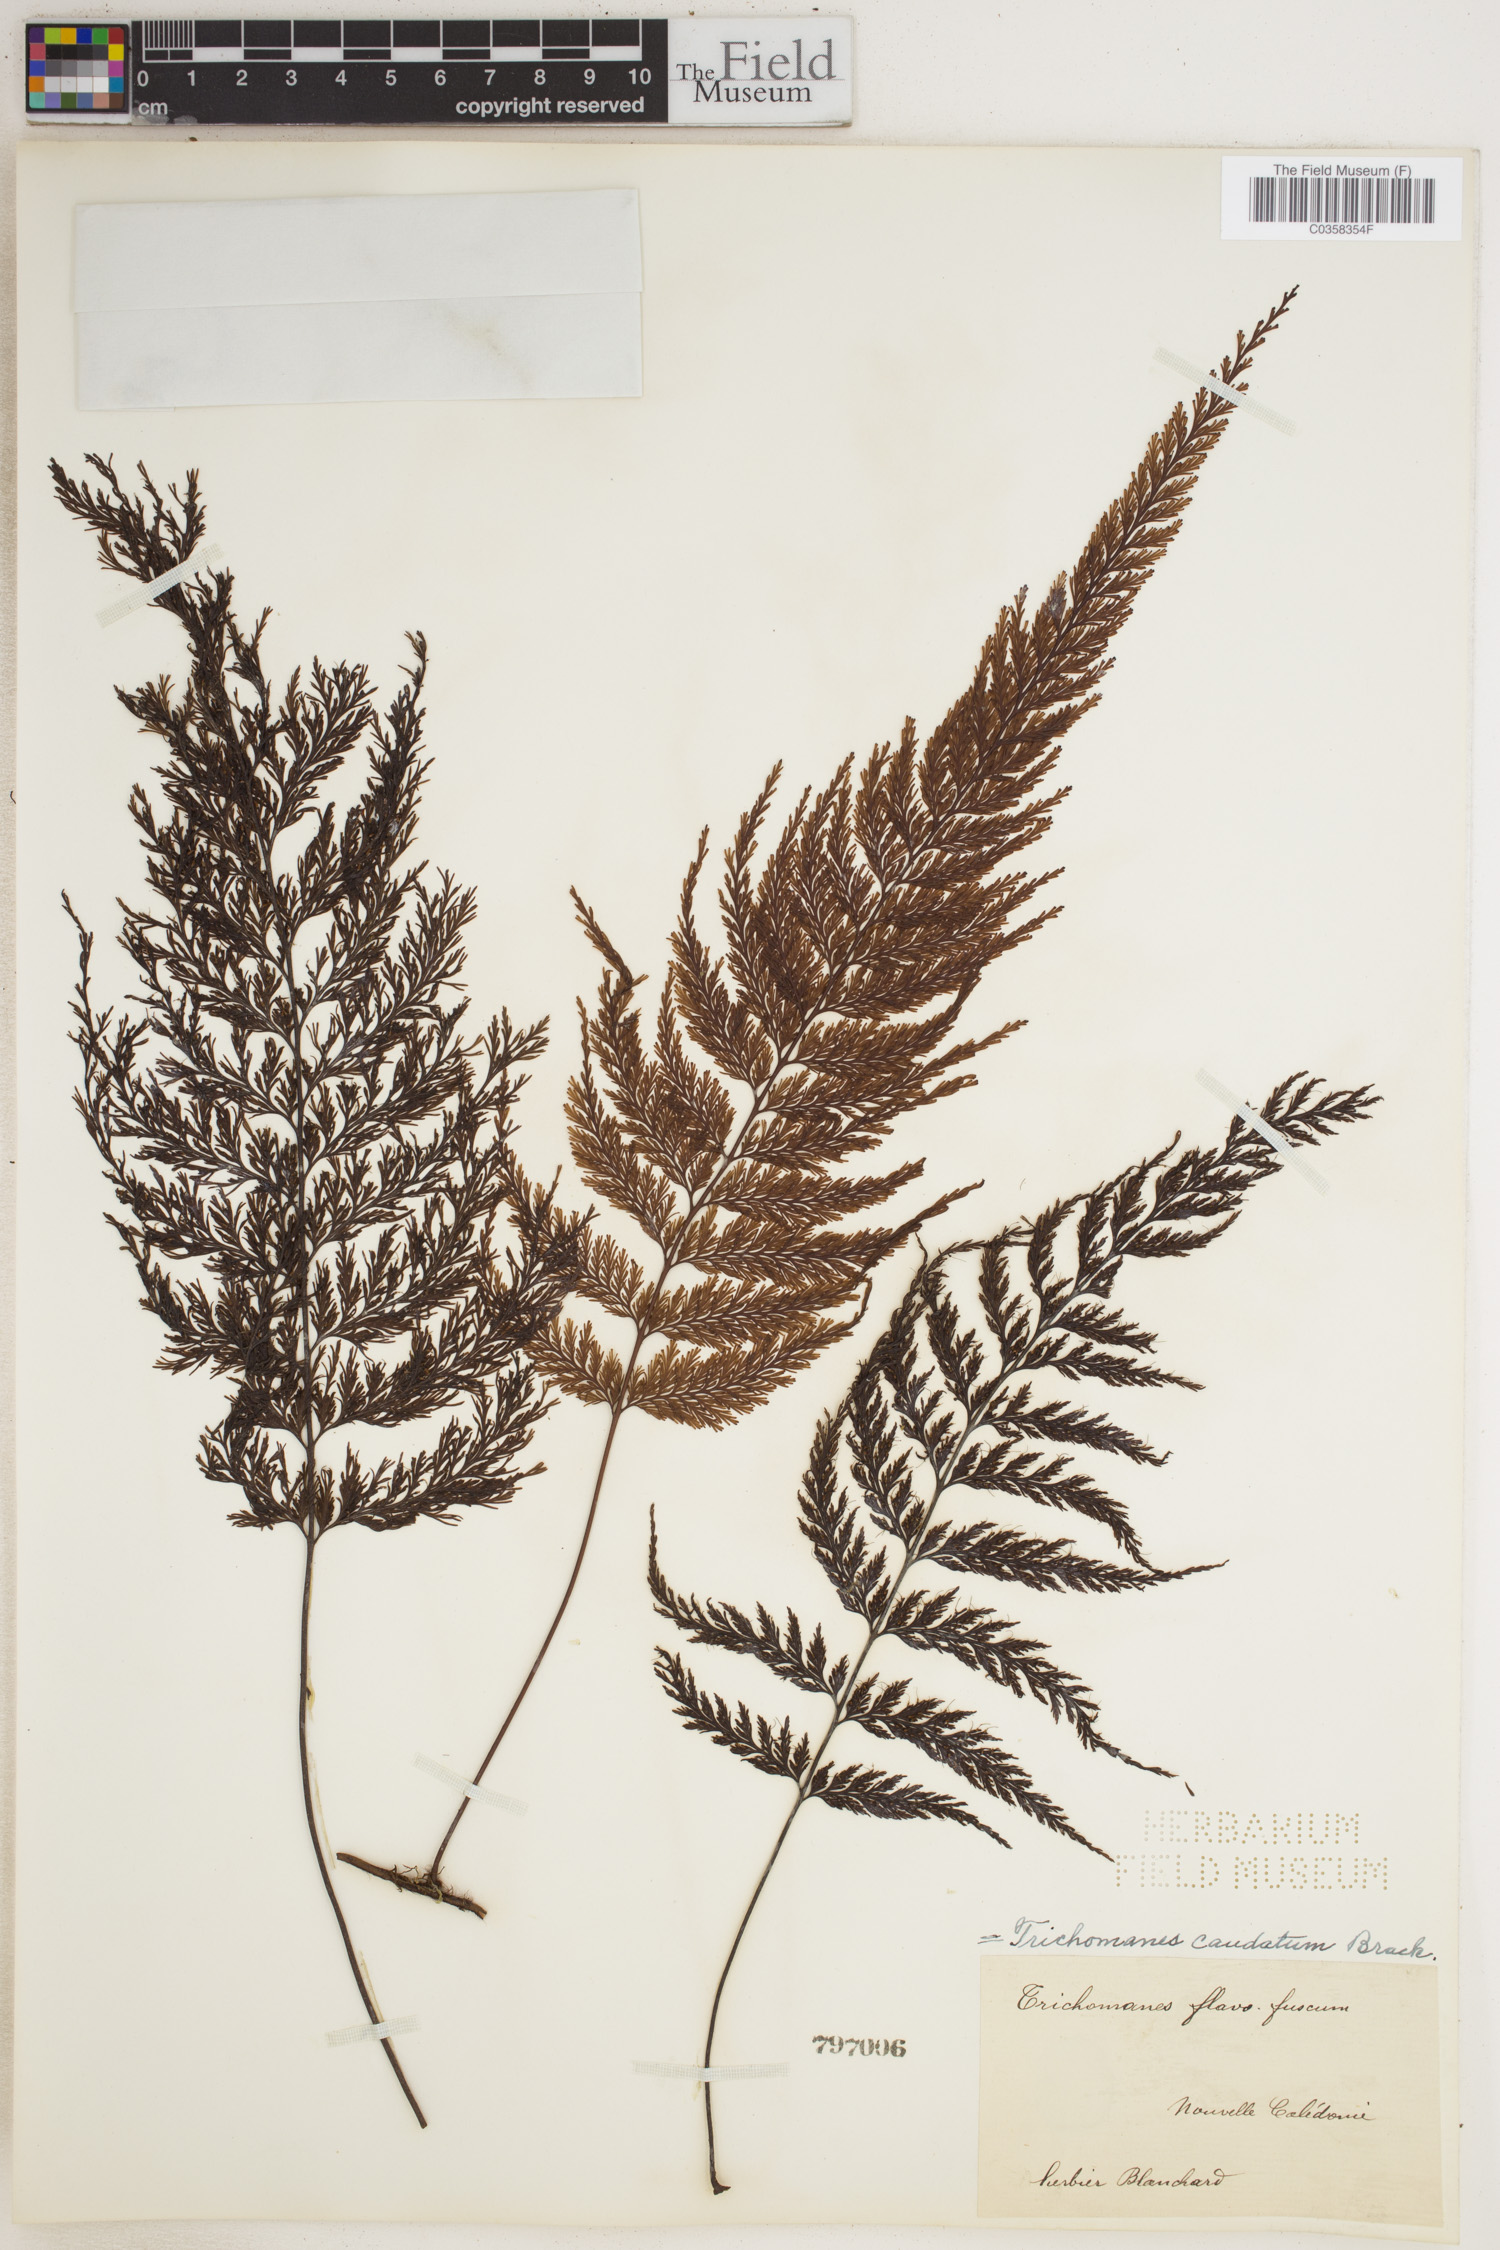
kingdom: Plantae
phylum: Tracheophyta
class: Polypodiopsida
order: Hymenophyllales
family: Hymenophyllaceae
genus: Abrodictyum
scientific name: Abrodictyum caudatum
